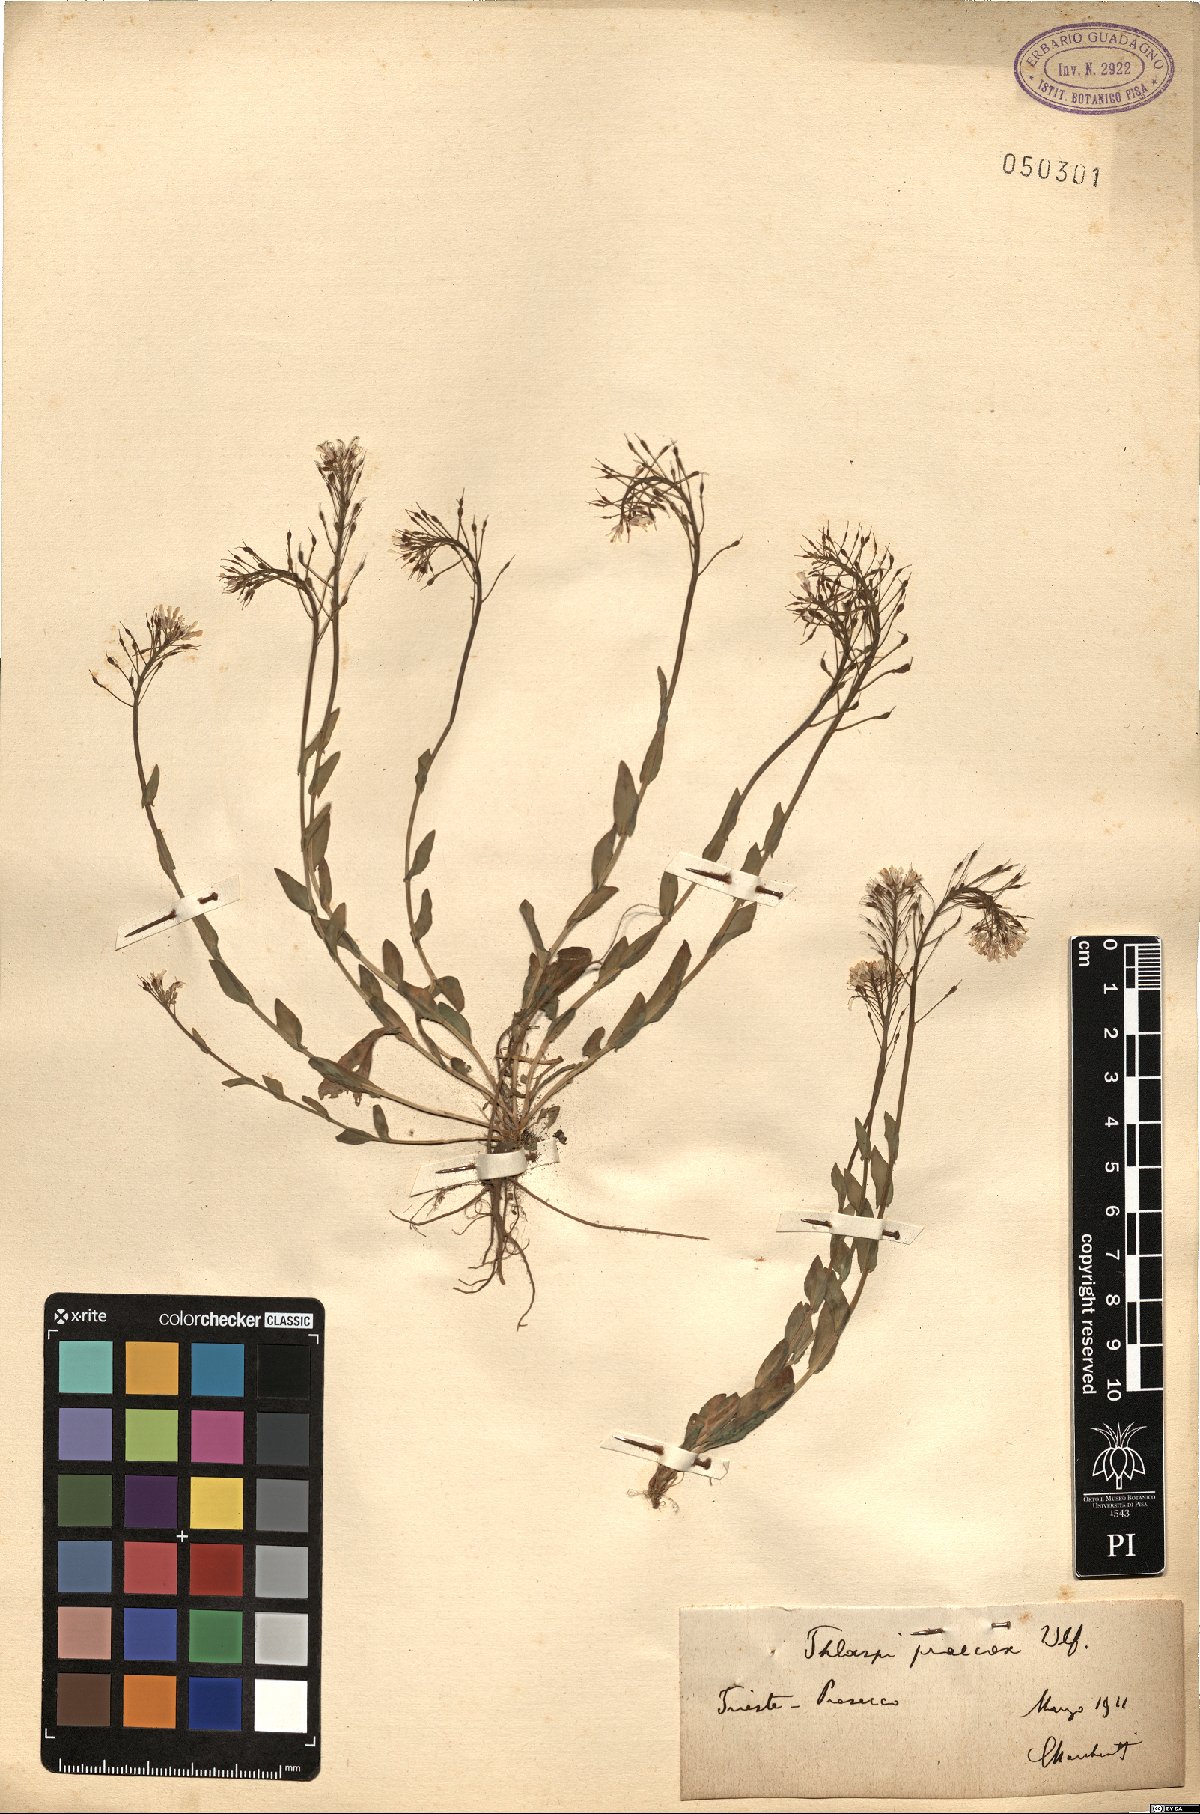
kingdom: Plantae
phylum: Tracheophyta
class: Magnoliopsida
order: Brassicales
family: Brassicaceae
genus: Noccaea
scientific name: Noccaea praecox
